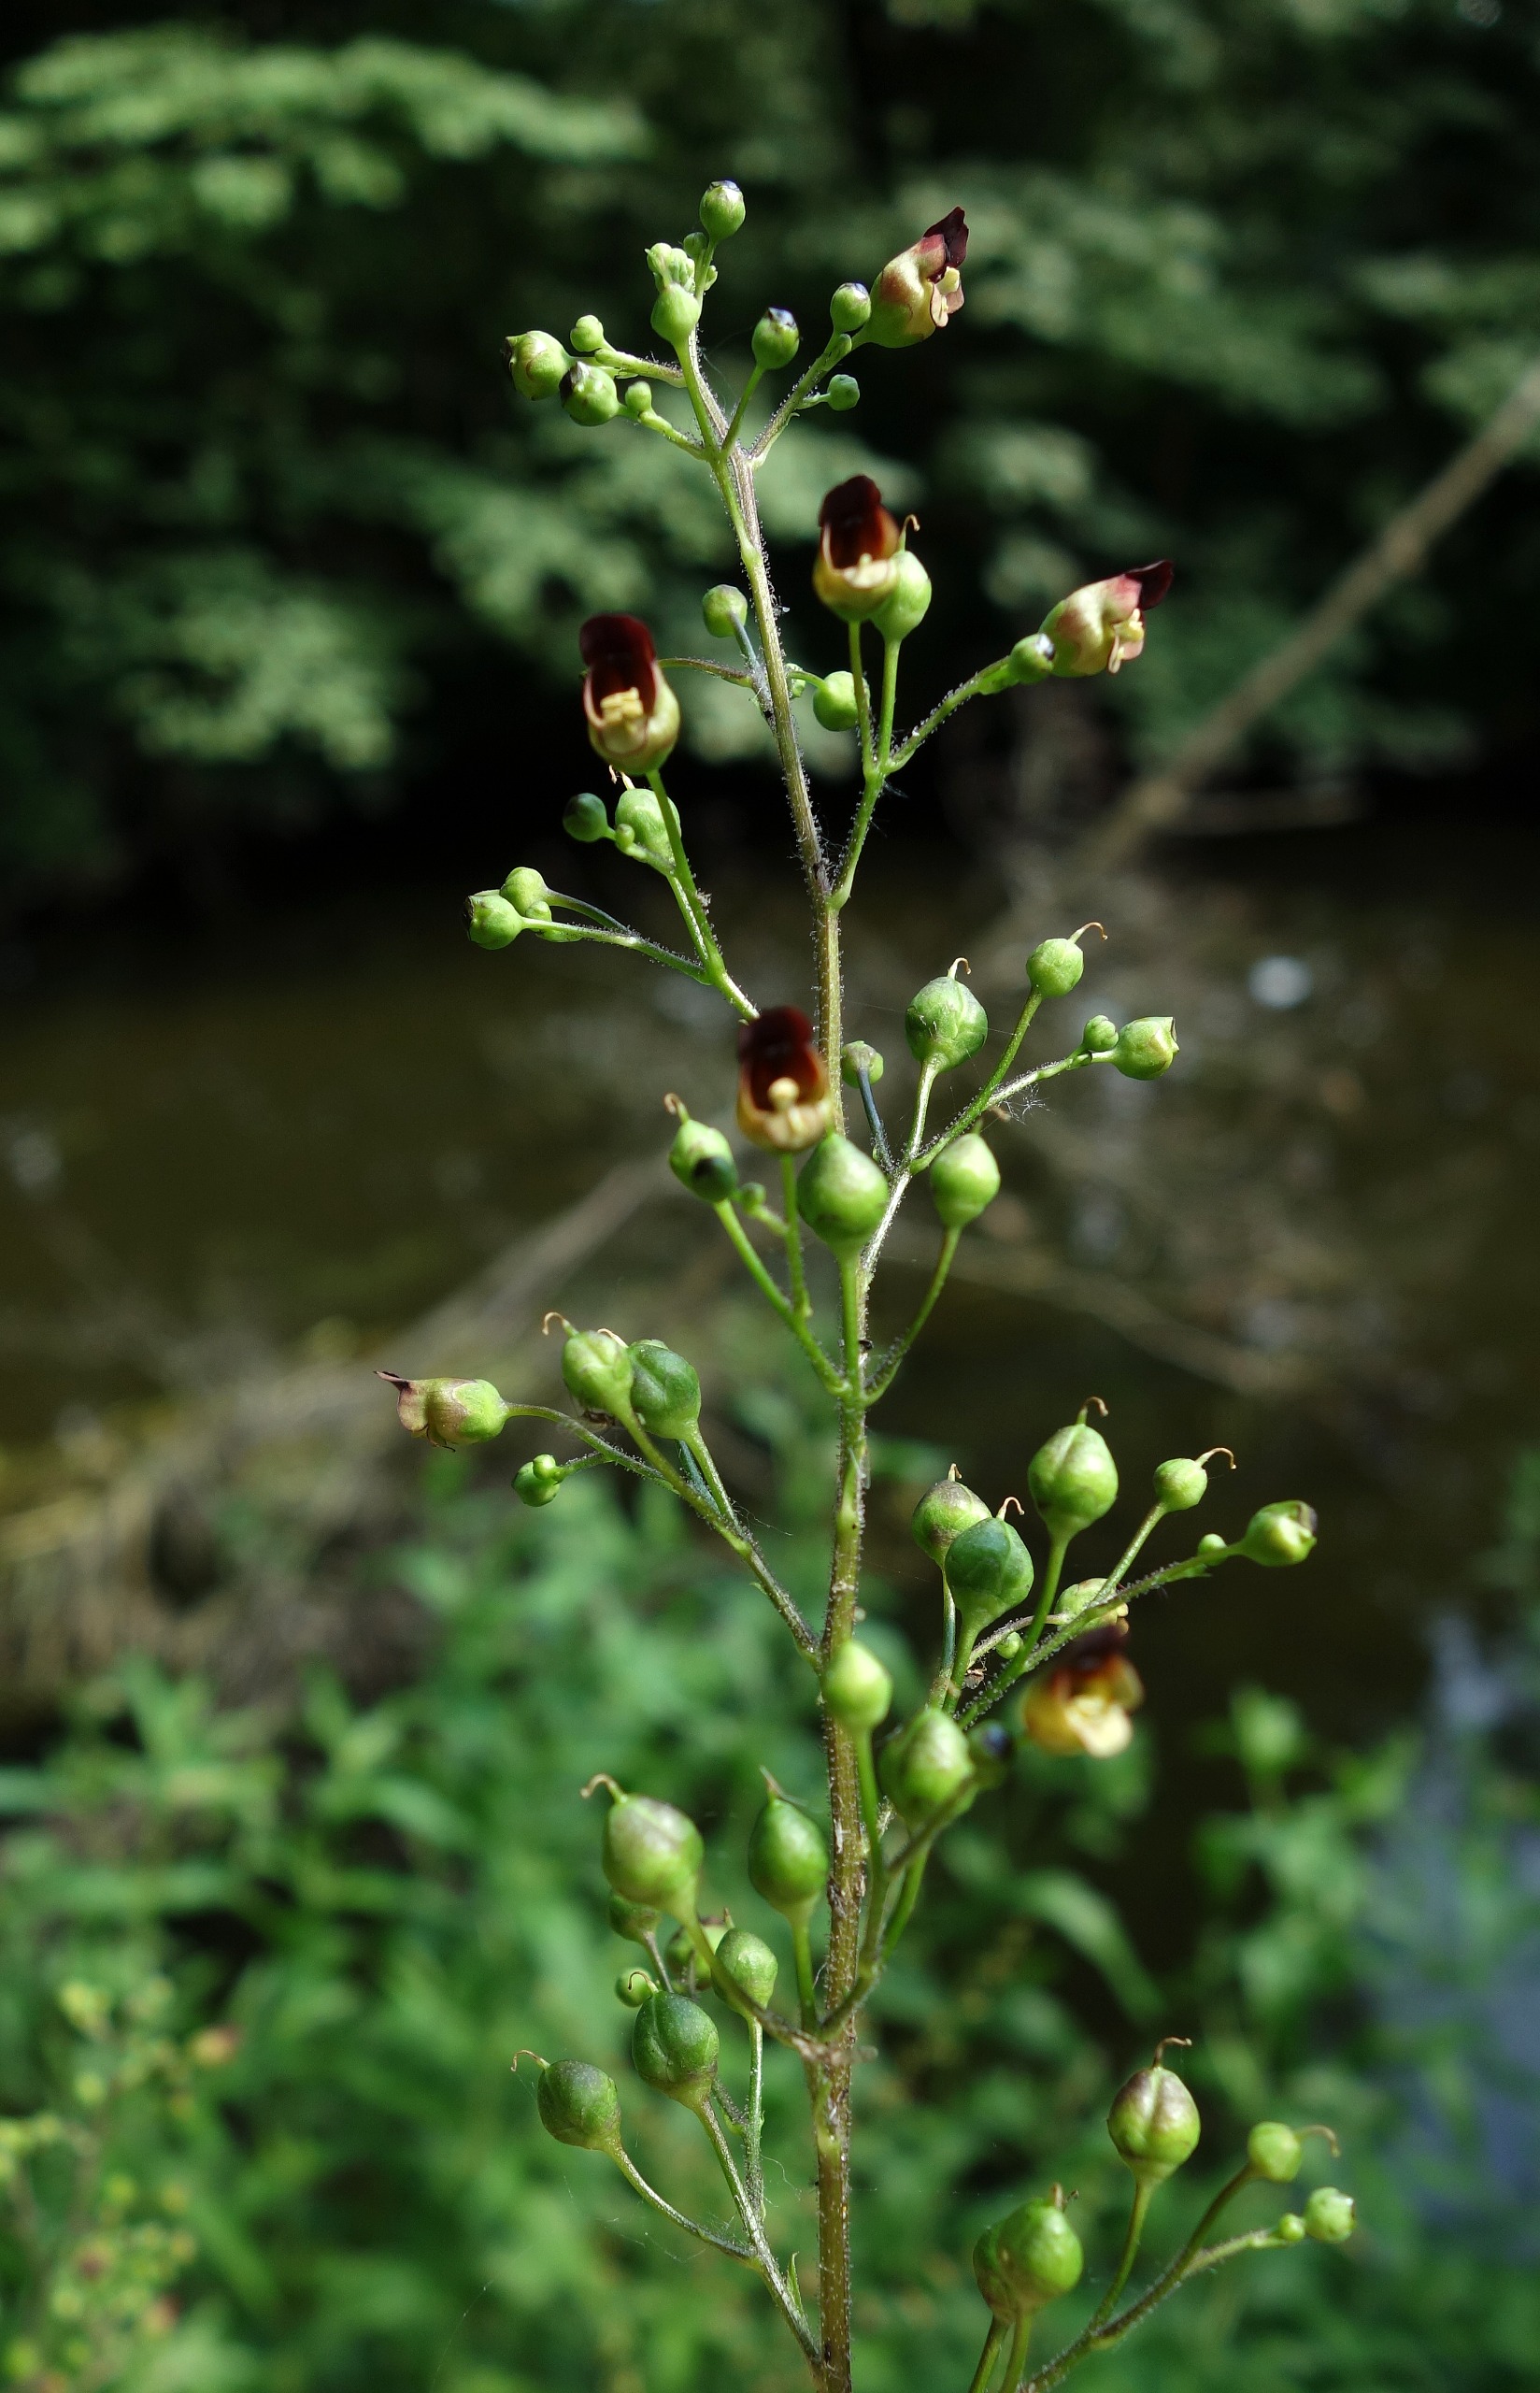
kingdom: Plantae
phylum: Tracheophyta
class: Magnoliopsida
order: Lamiales
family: Scrophulariaceae
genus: Scrophularia
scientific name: Scrophularia nodosa
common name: Knoldet brunrod
